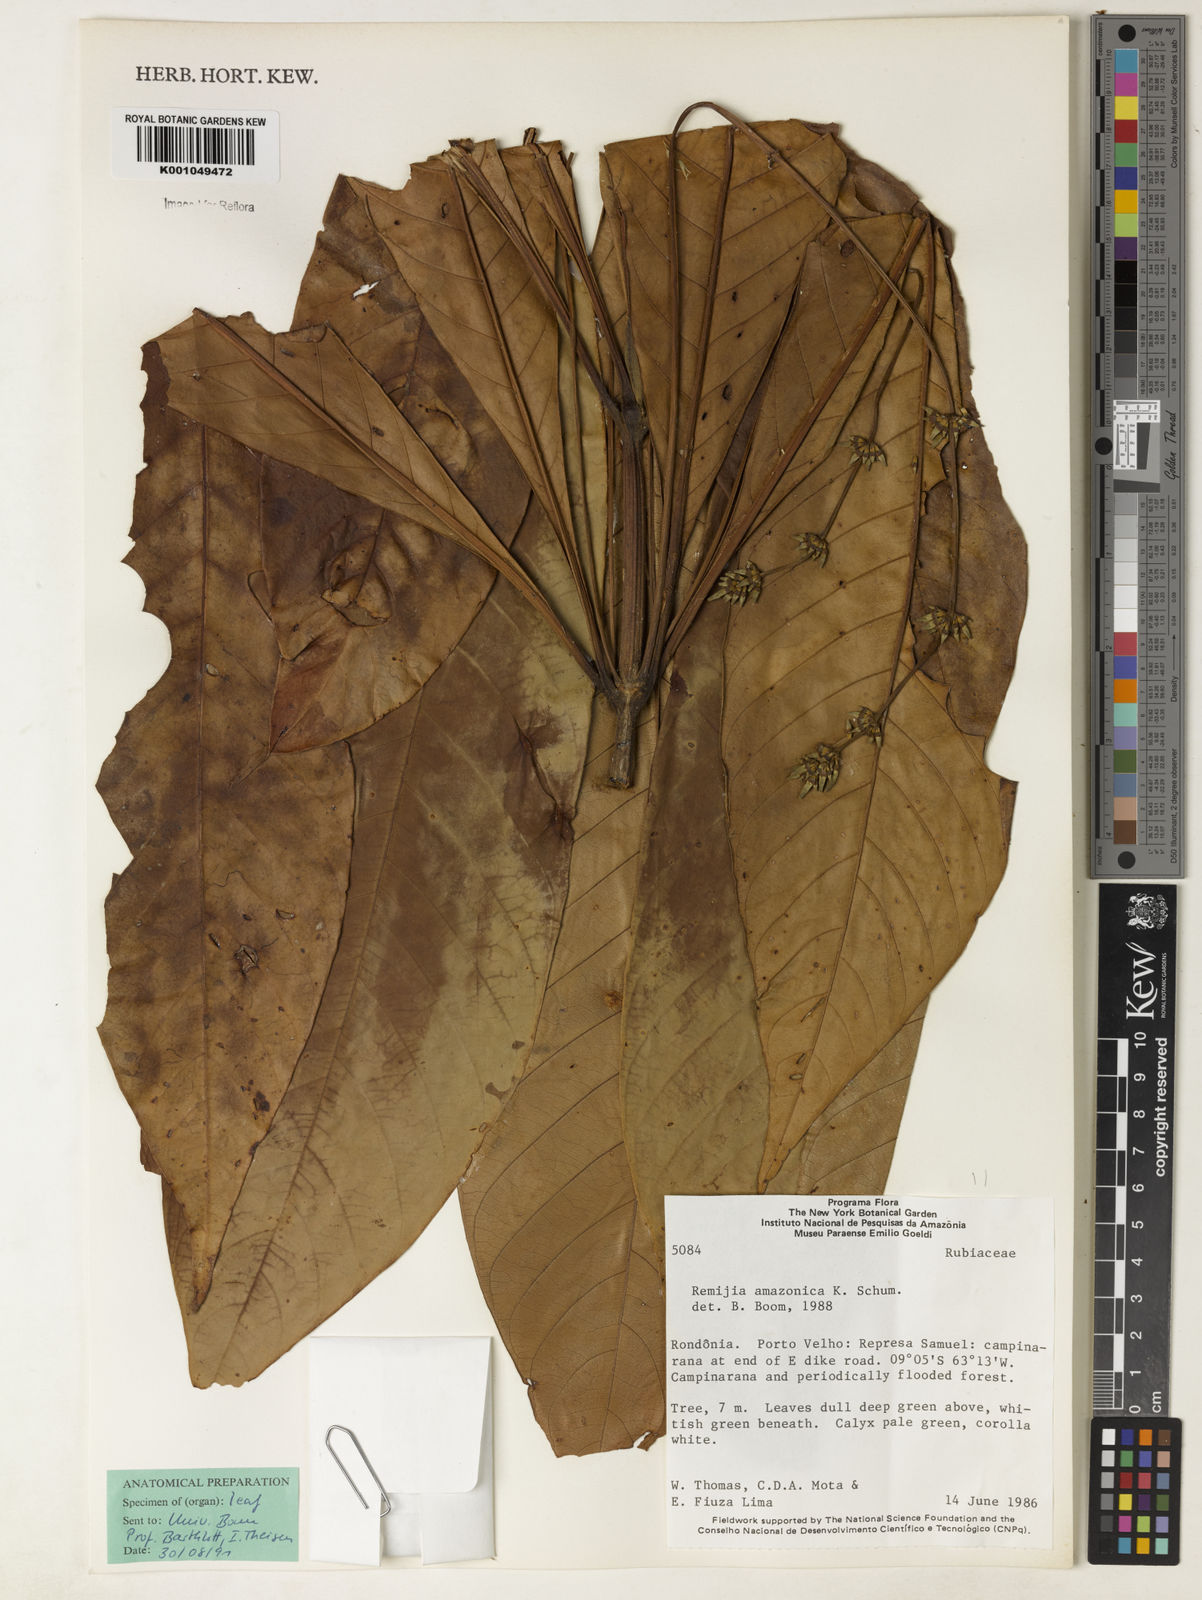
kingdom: Plantae
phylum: Tracheophyta
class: Magnoliopsida
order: Gentianales
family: Rubiaceae
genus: Remijia
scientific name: Remijia amazonica
